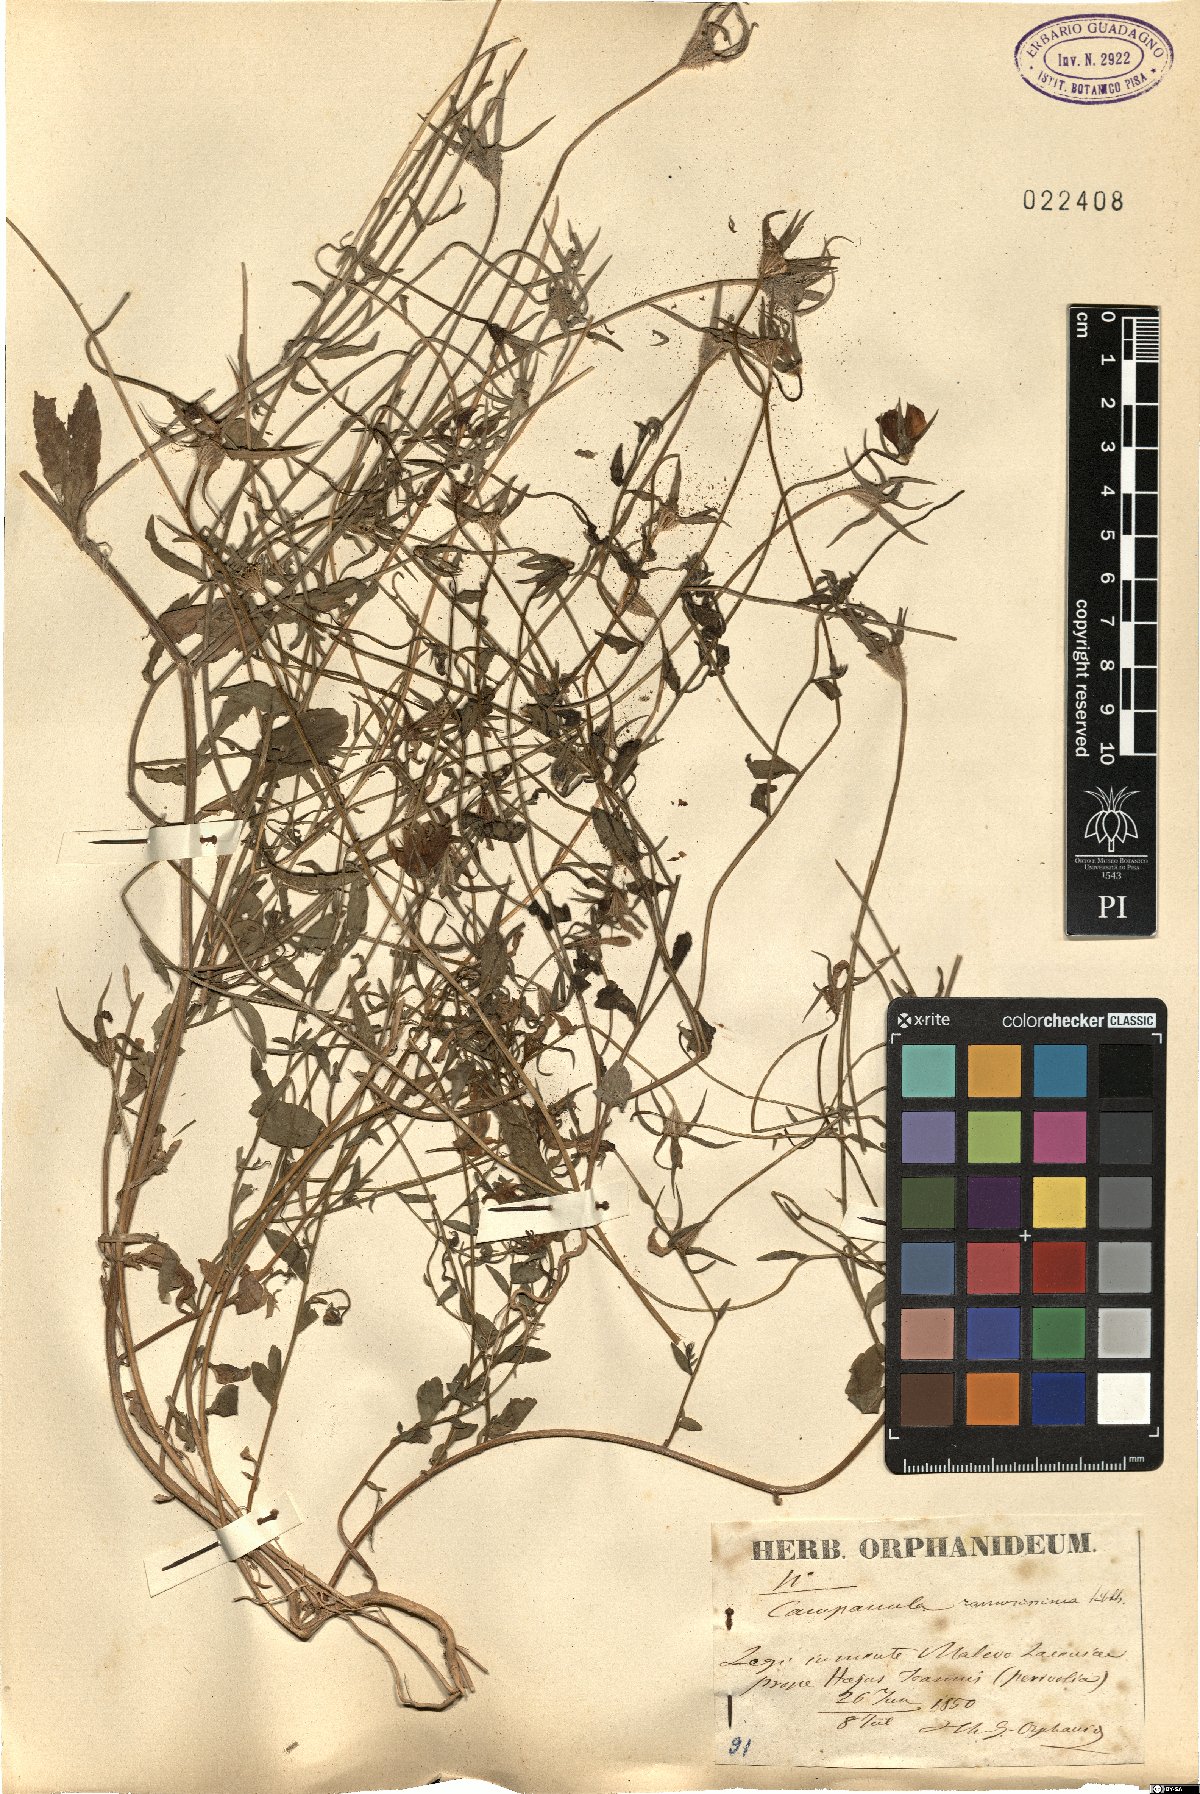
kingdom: Plantae
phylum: Tracheophyta
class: Magnoliopsida
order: Asterales
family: Campanulaceae
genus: Campanula
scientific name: Campanula ramosissima
